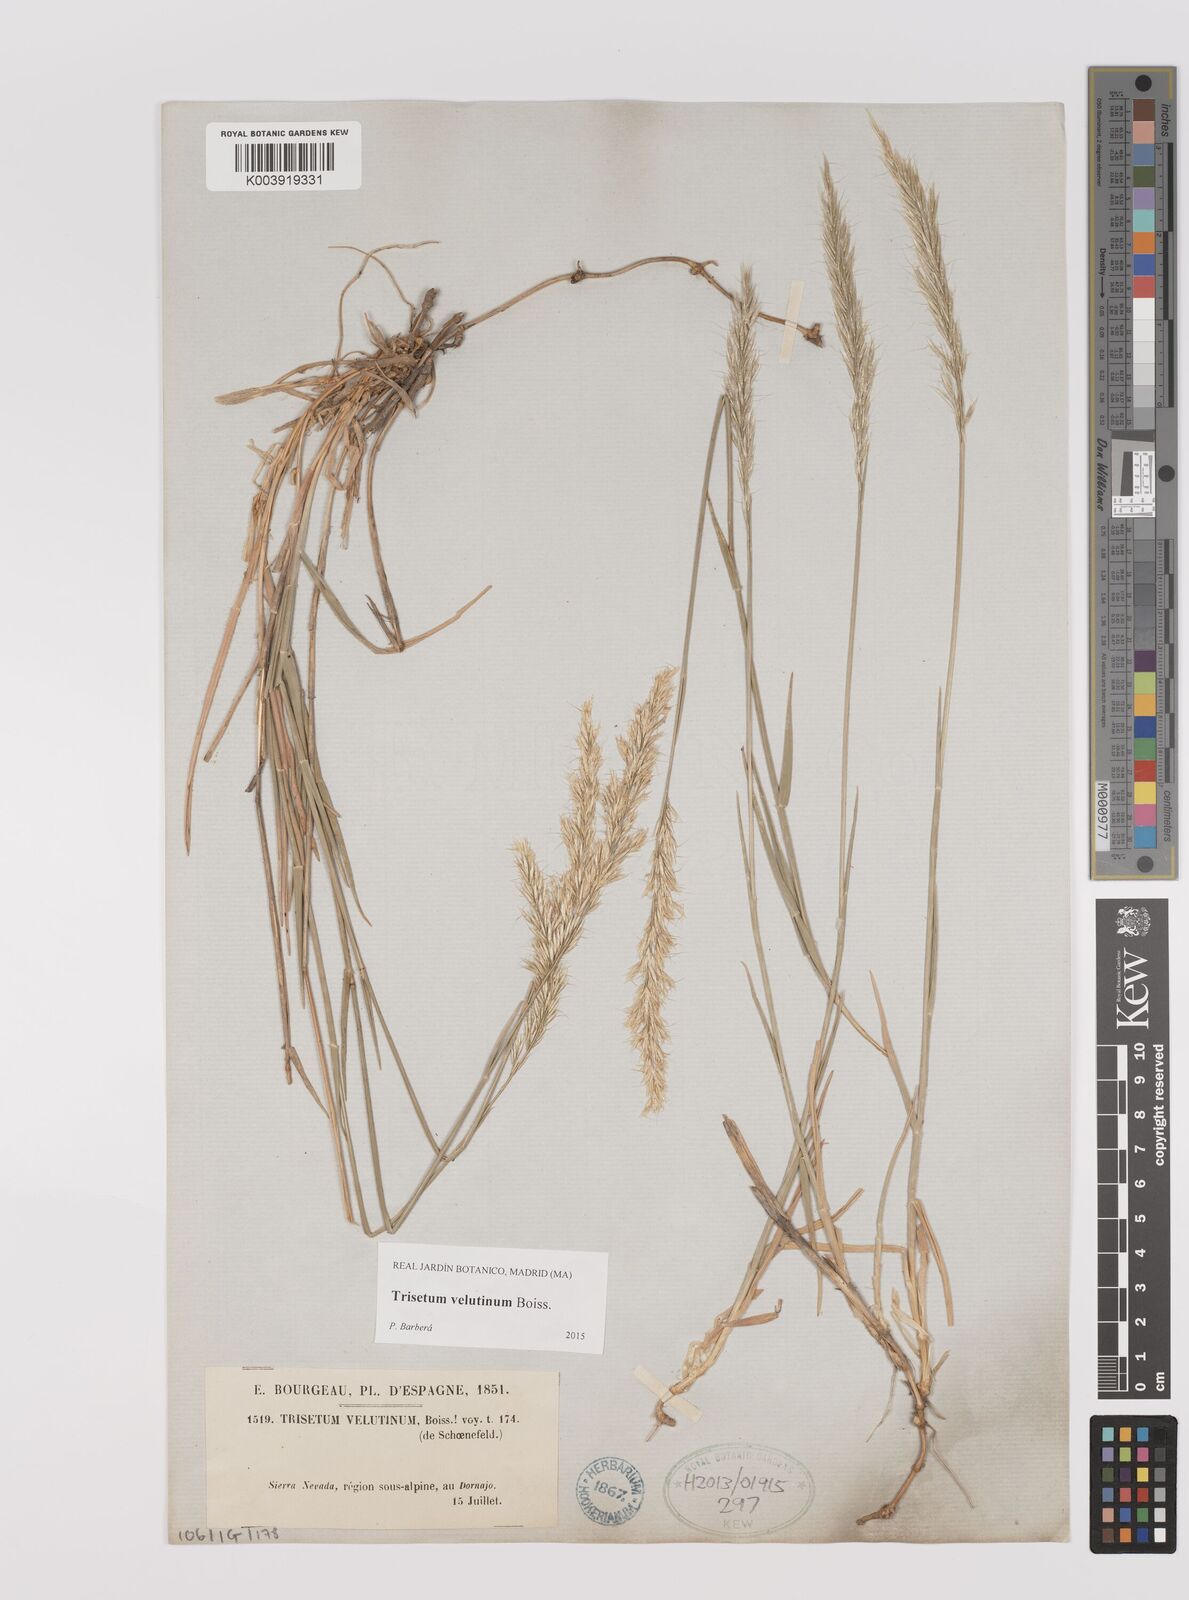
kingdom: Plantae
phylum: Tracheophyta
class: Liliopsida
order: Poales
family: Poaceae
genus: Trisetum
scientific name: Trisetum velutinum
